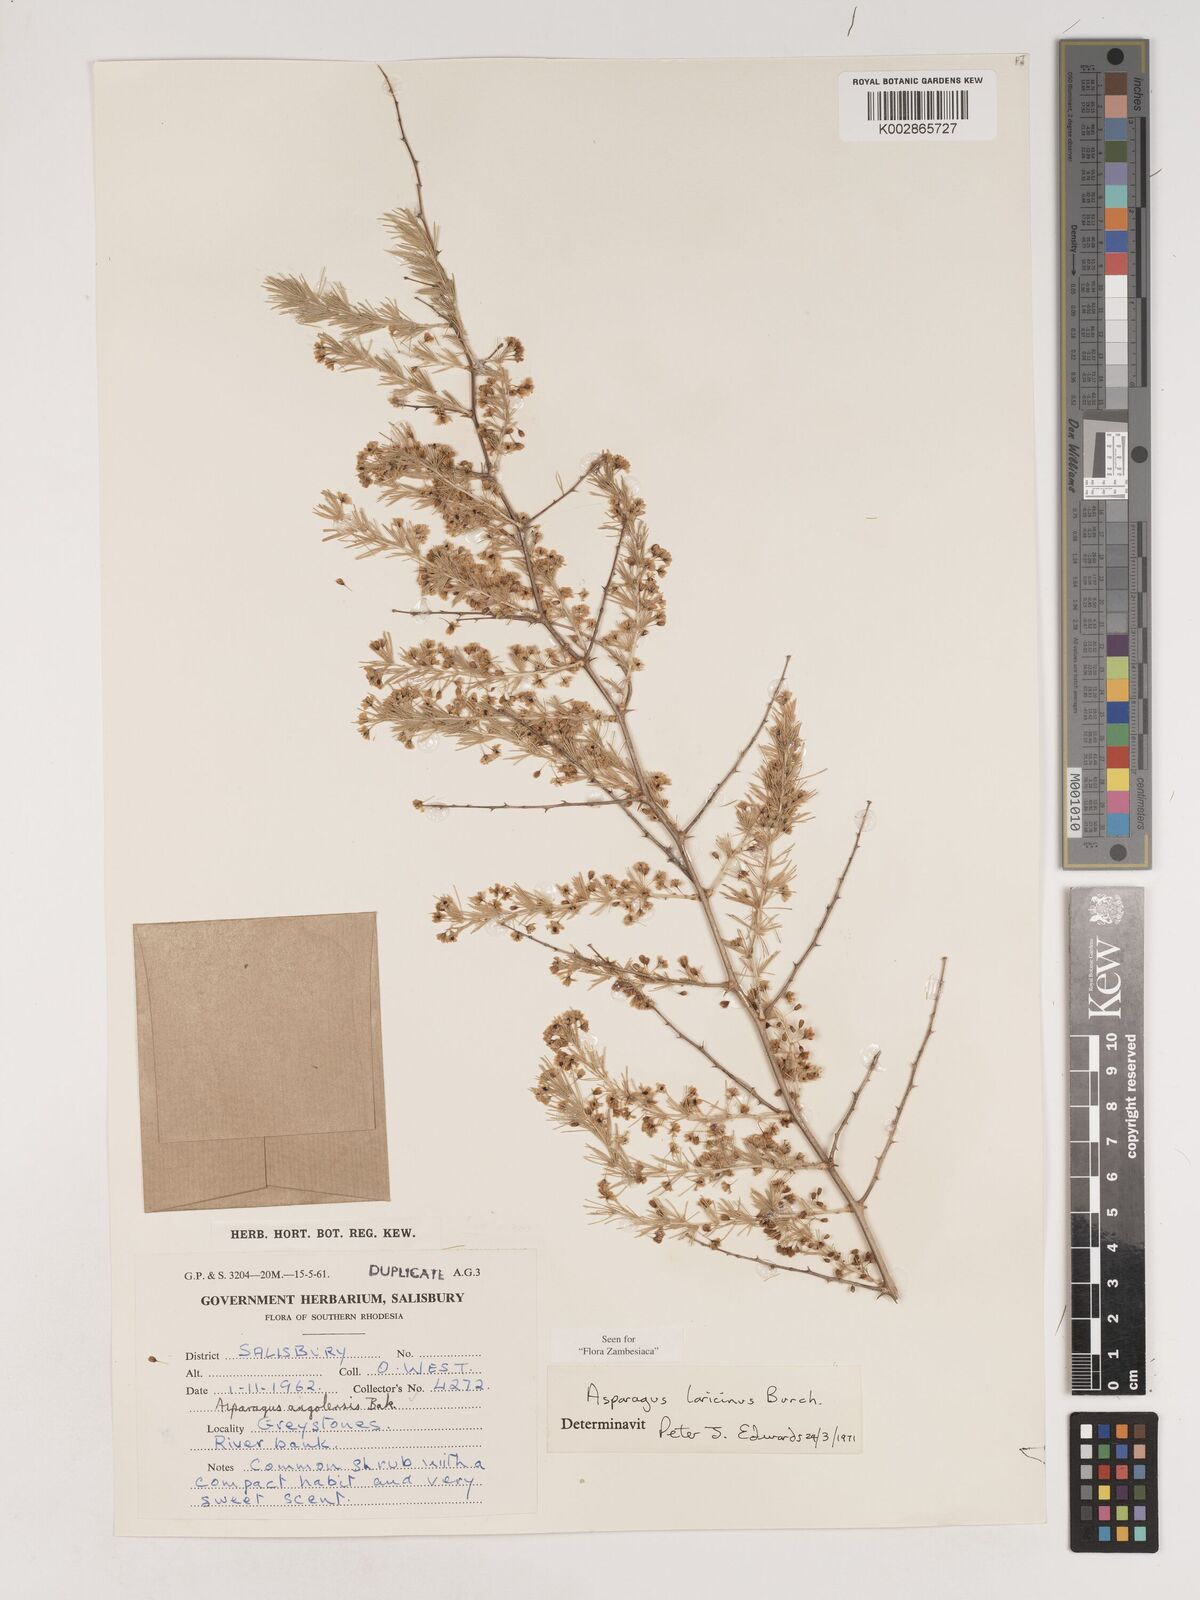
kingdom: Plantae
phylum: Tracheophyta
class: Liliopsida
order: Asparagales
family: Asparagaceae
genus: Asparagus
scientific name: Asparagus laricinus
